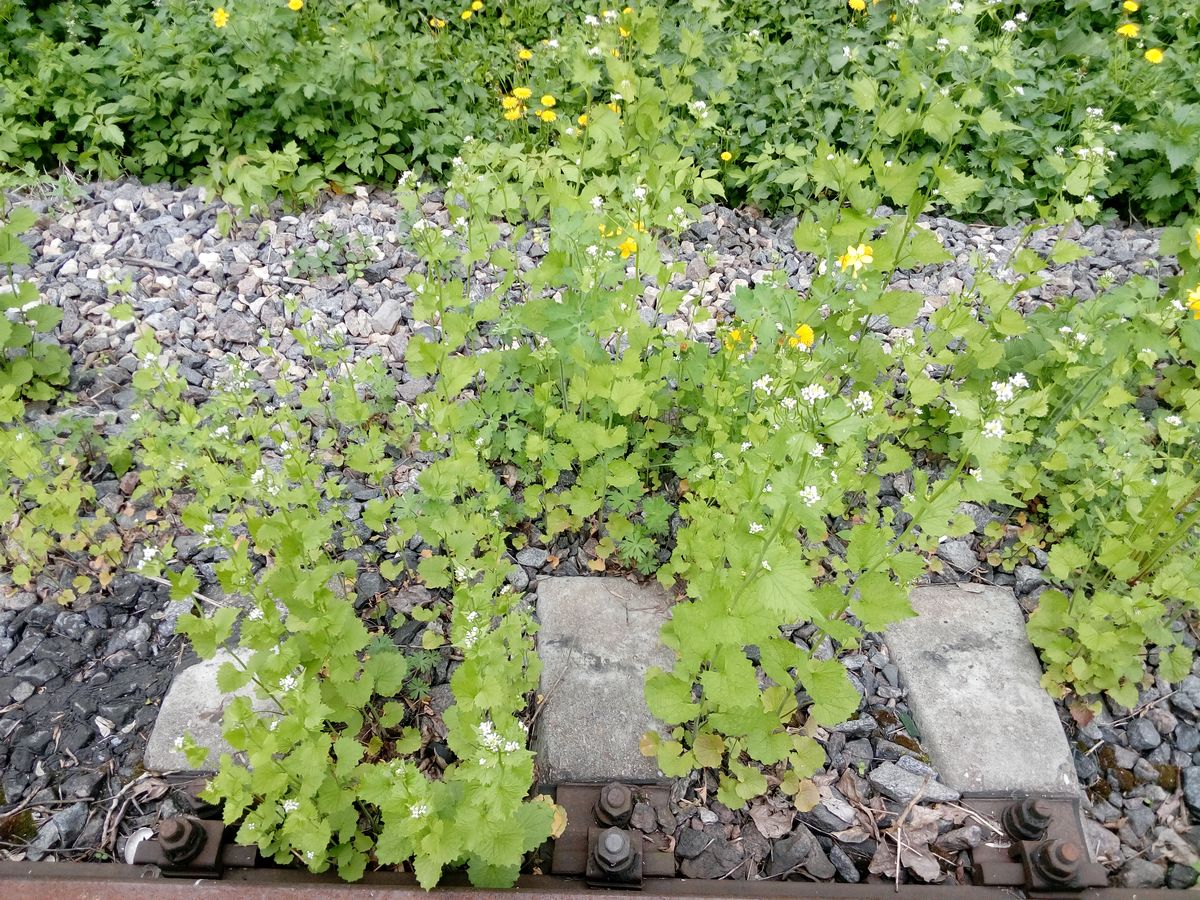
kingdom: Plantae
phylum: Tracheophyta
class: Magnoliopsida
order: Brassicales
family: Brassicaceae
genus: Alliaria
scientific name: Alliaria petiolata
